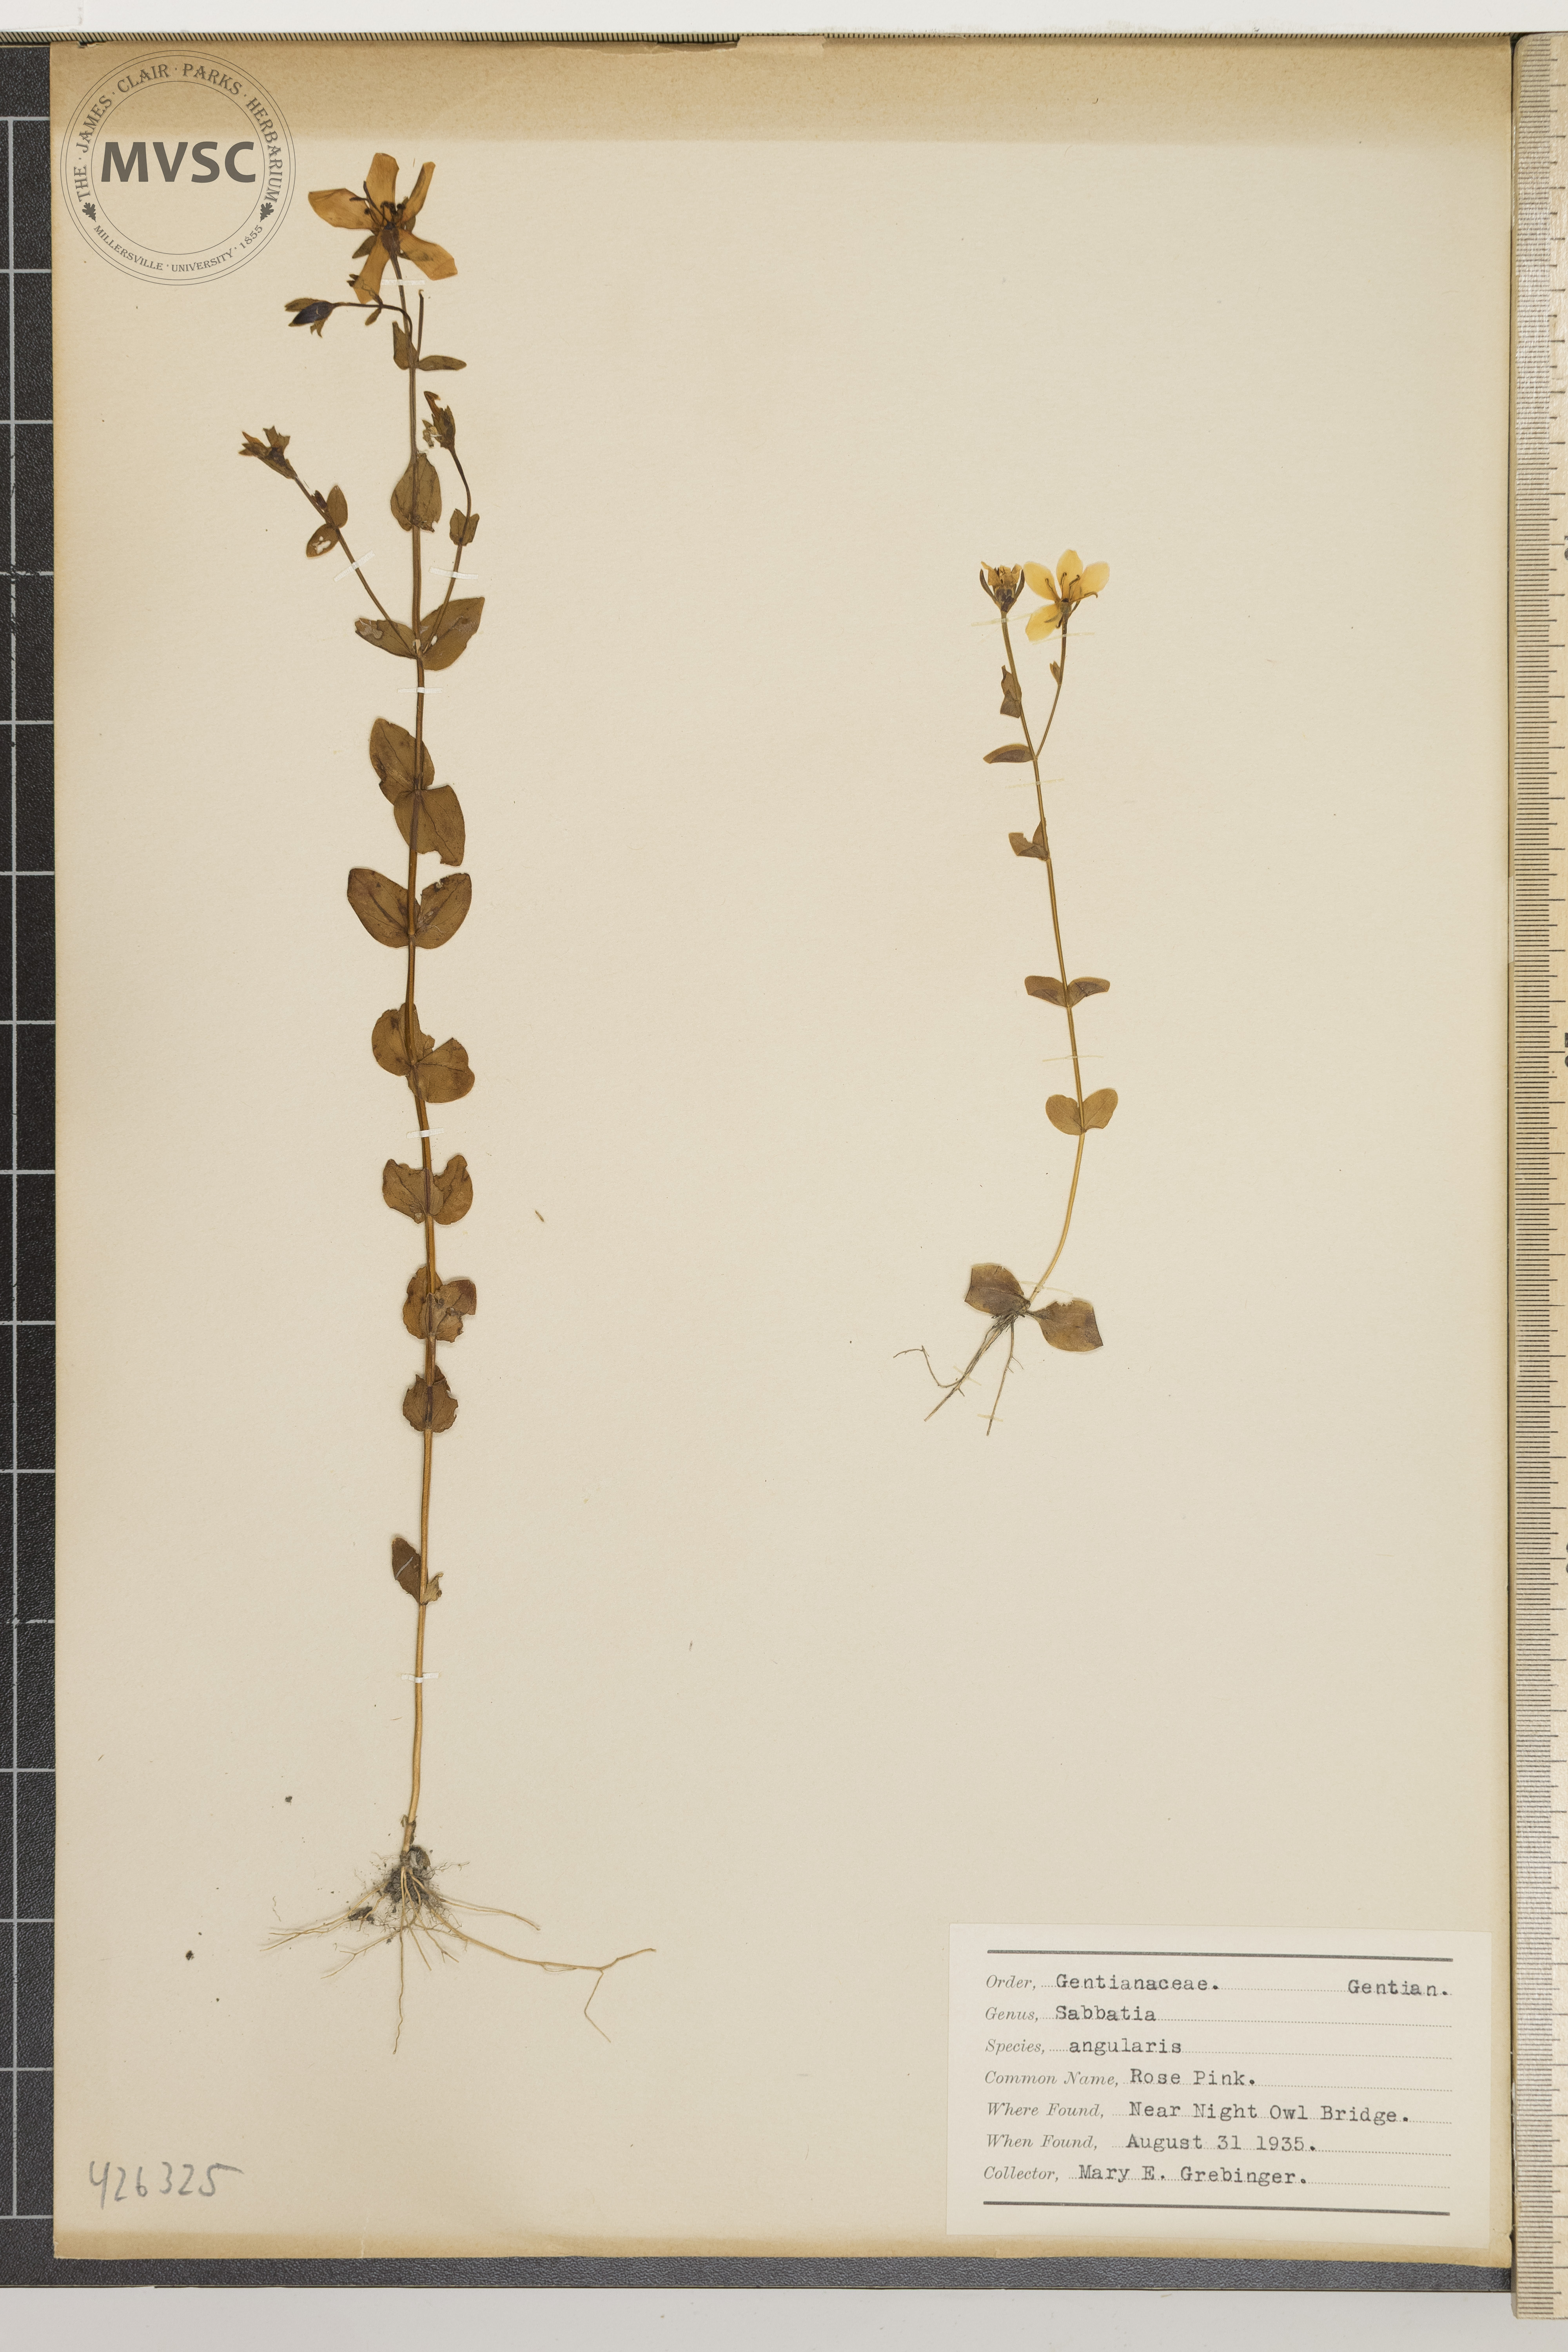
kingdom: Plantae
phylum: Tracheophyta
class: Magnoliopsida
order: Gentianales
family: Gentianaceae
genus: Sabatia
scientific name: Sabatia angularis
